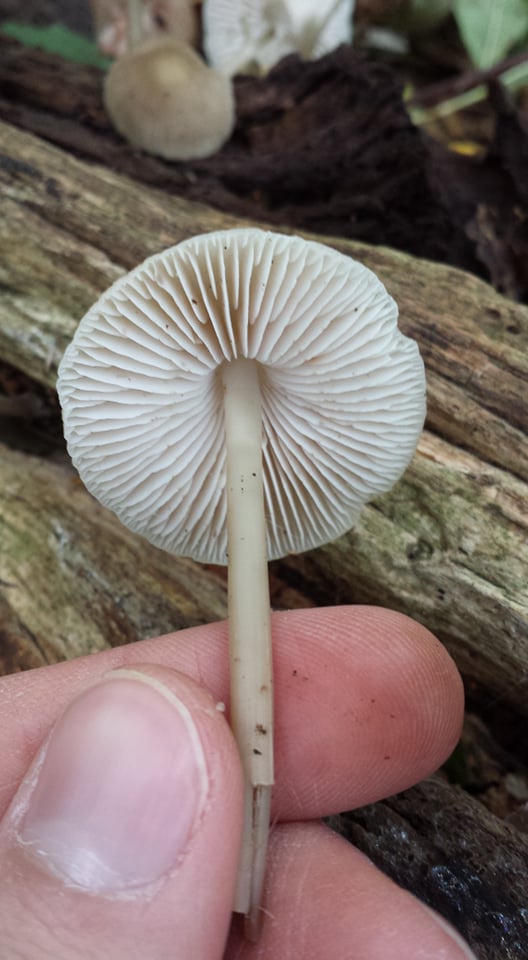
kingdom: Fungi
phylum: Basidiomycota
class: Agaricomycetes
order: Agaricales
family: Mycenaceae
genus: Mycena
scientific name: Mycena galericulata
